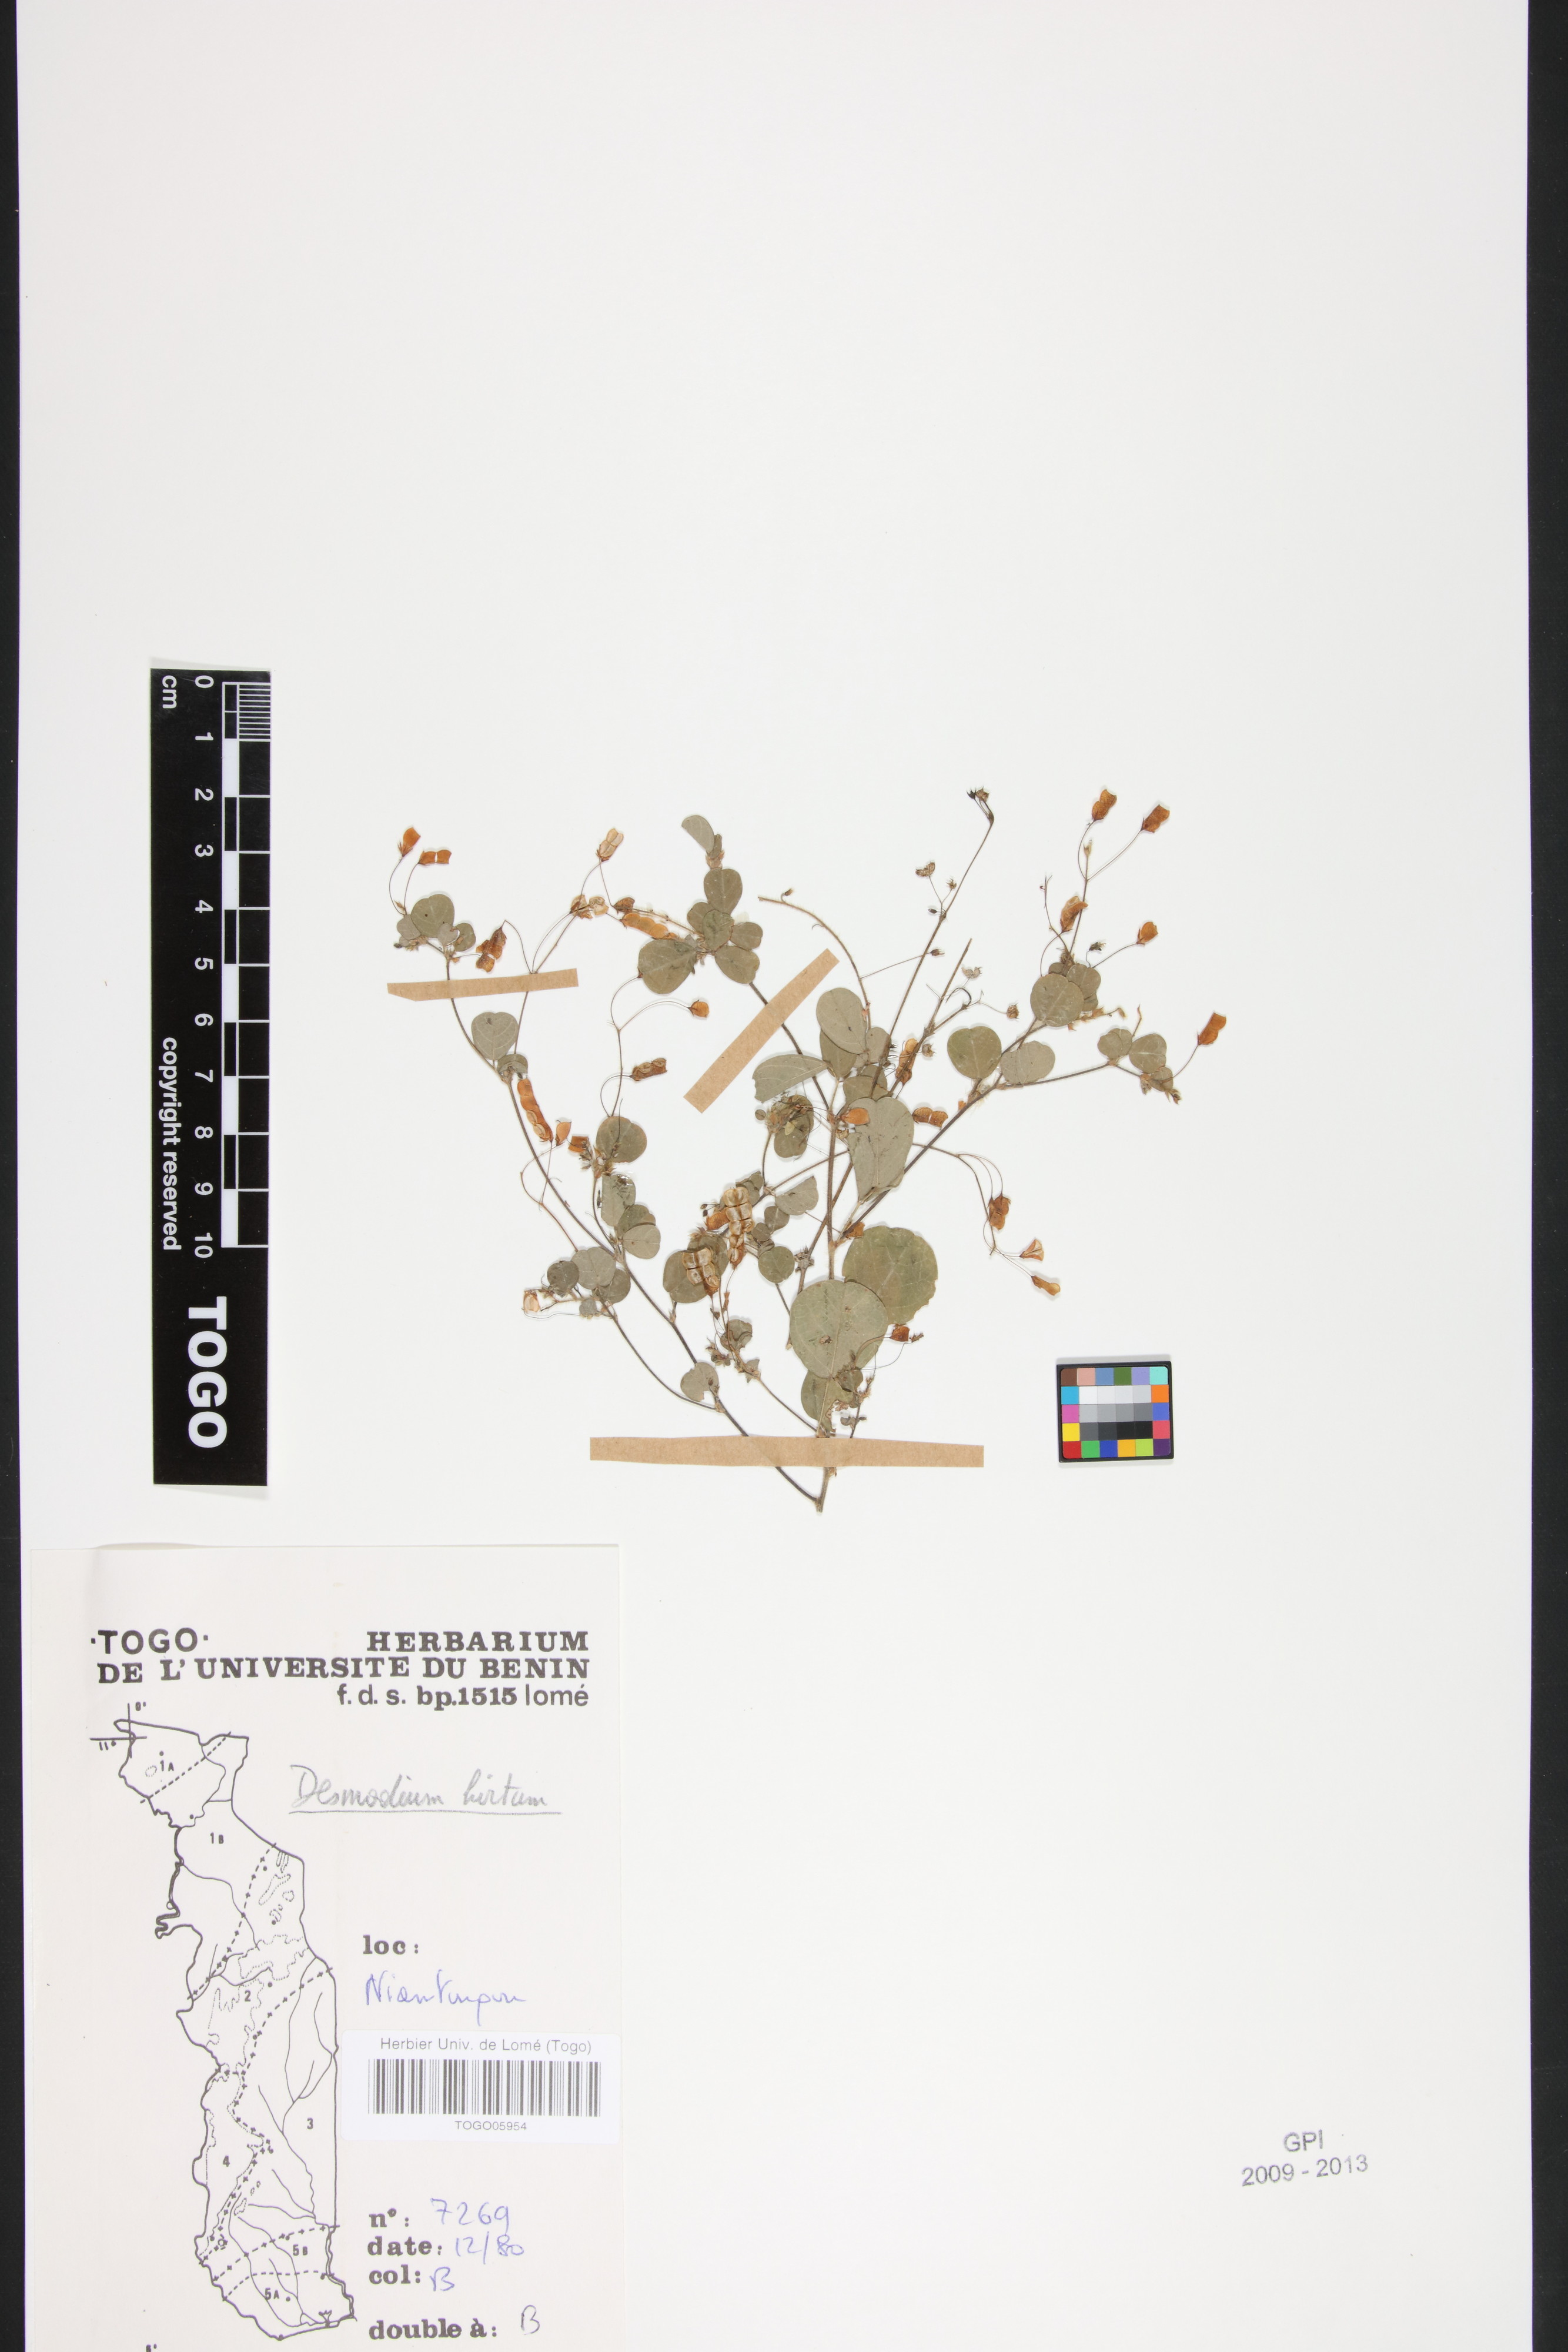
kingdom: Plantae
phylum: Tracheophyta
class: Magnoliopsida
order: Fabales
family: Fabaceae
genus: Grona
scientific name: Grona hirta
